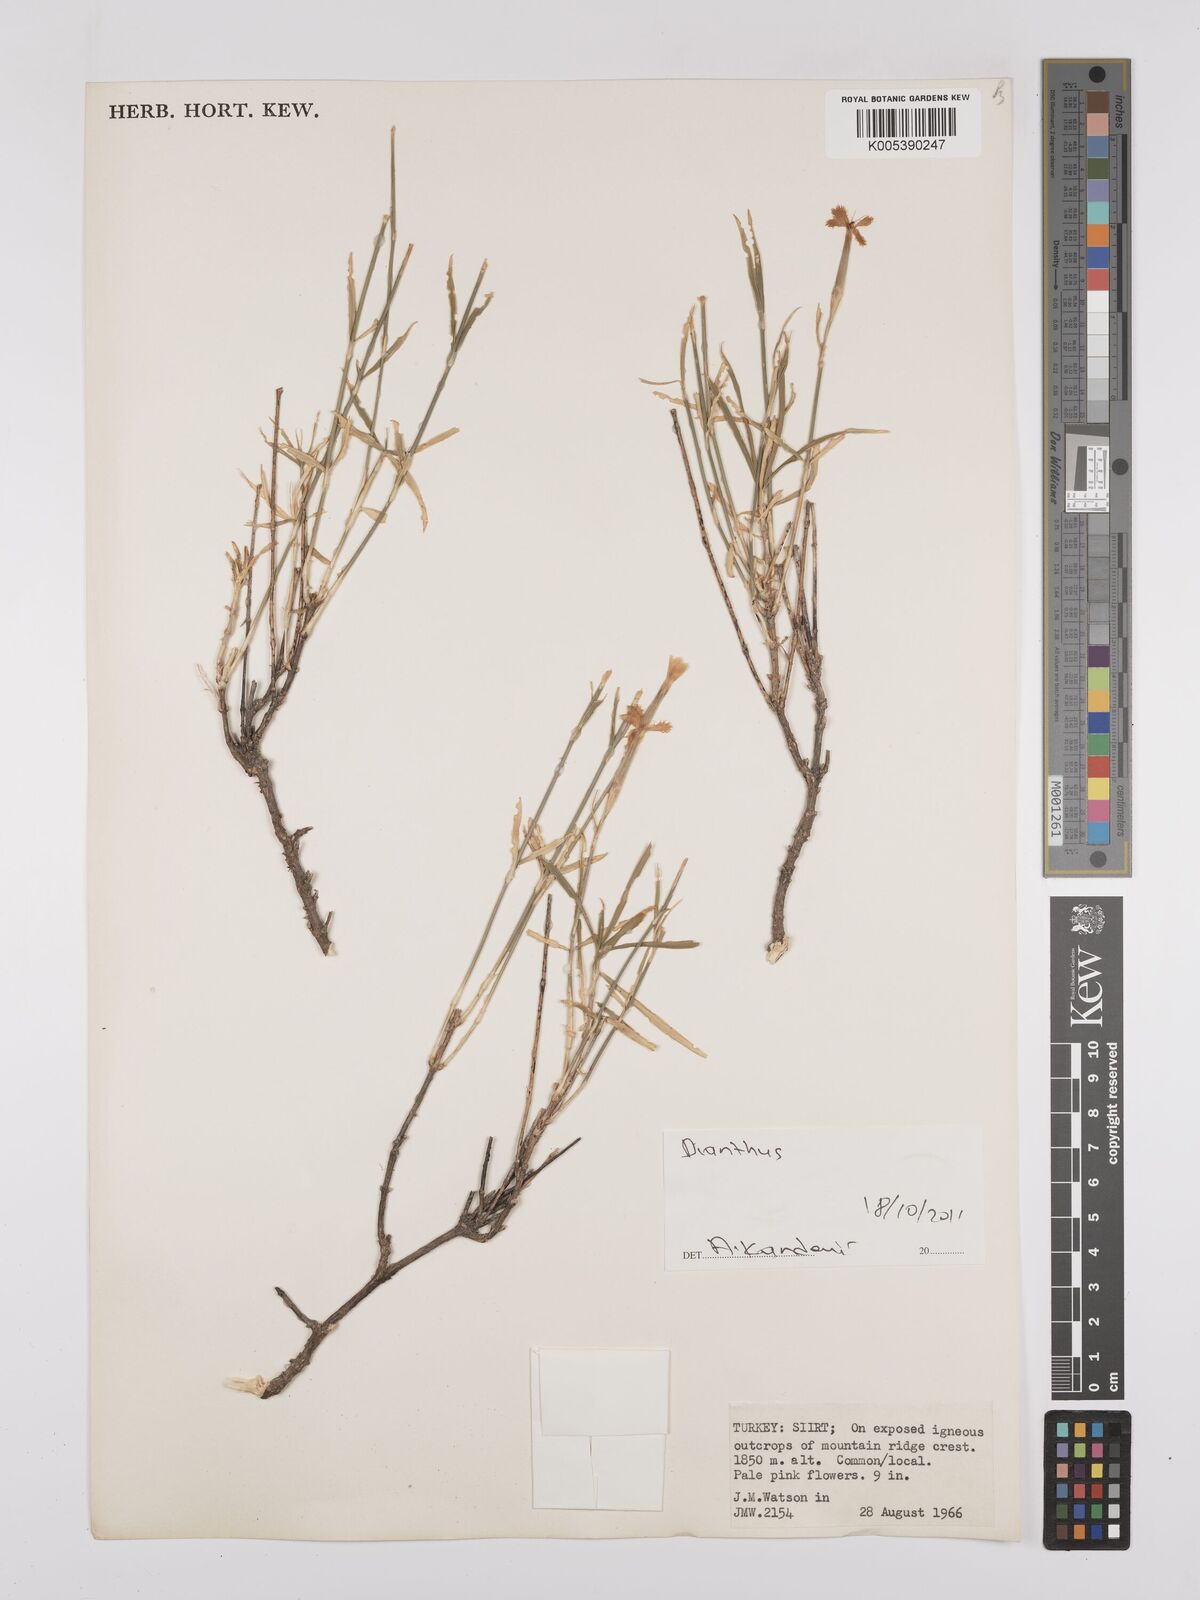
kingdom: Plantae
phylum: Tracheophyta
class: Magnoliopsida
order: Caryophyllales
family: Caryophyllaceae
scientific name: Caryophyllaceae
